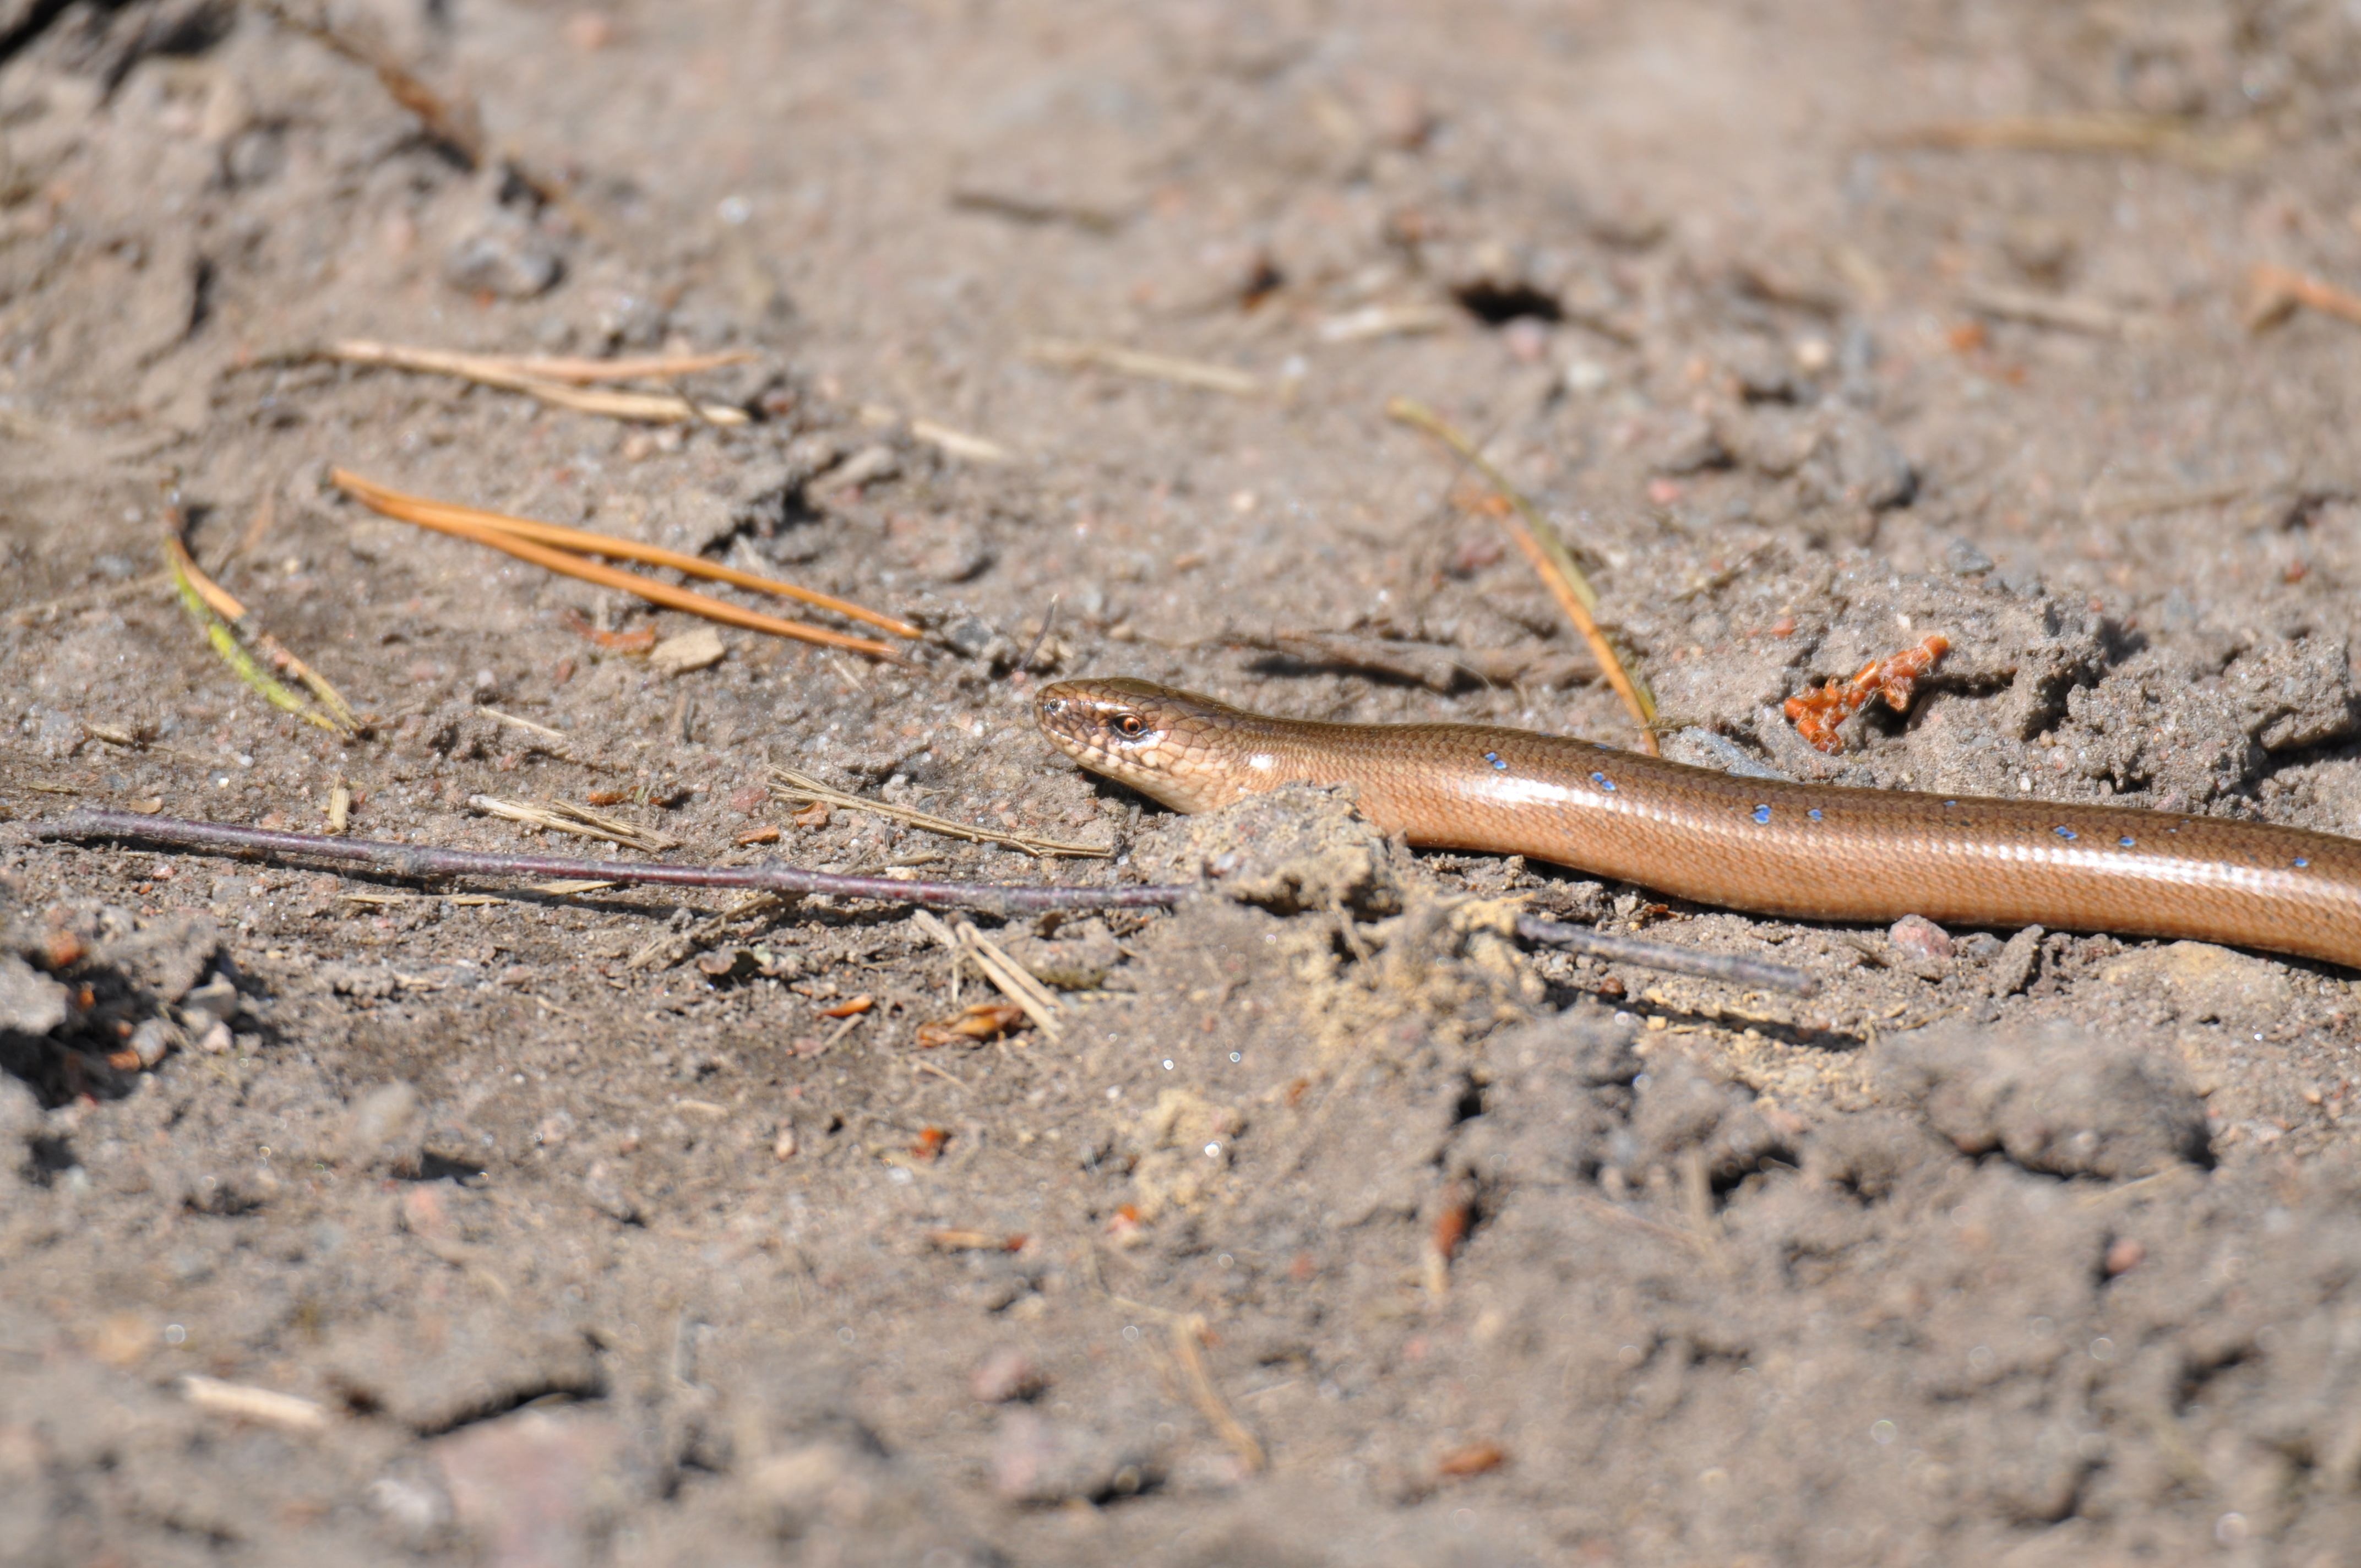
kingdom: Animalia
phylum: Chordata
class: Squamata
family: Anguidae
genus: Anguis
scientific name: Anguis colchica
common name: Slow worm
